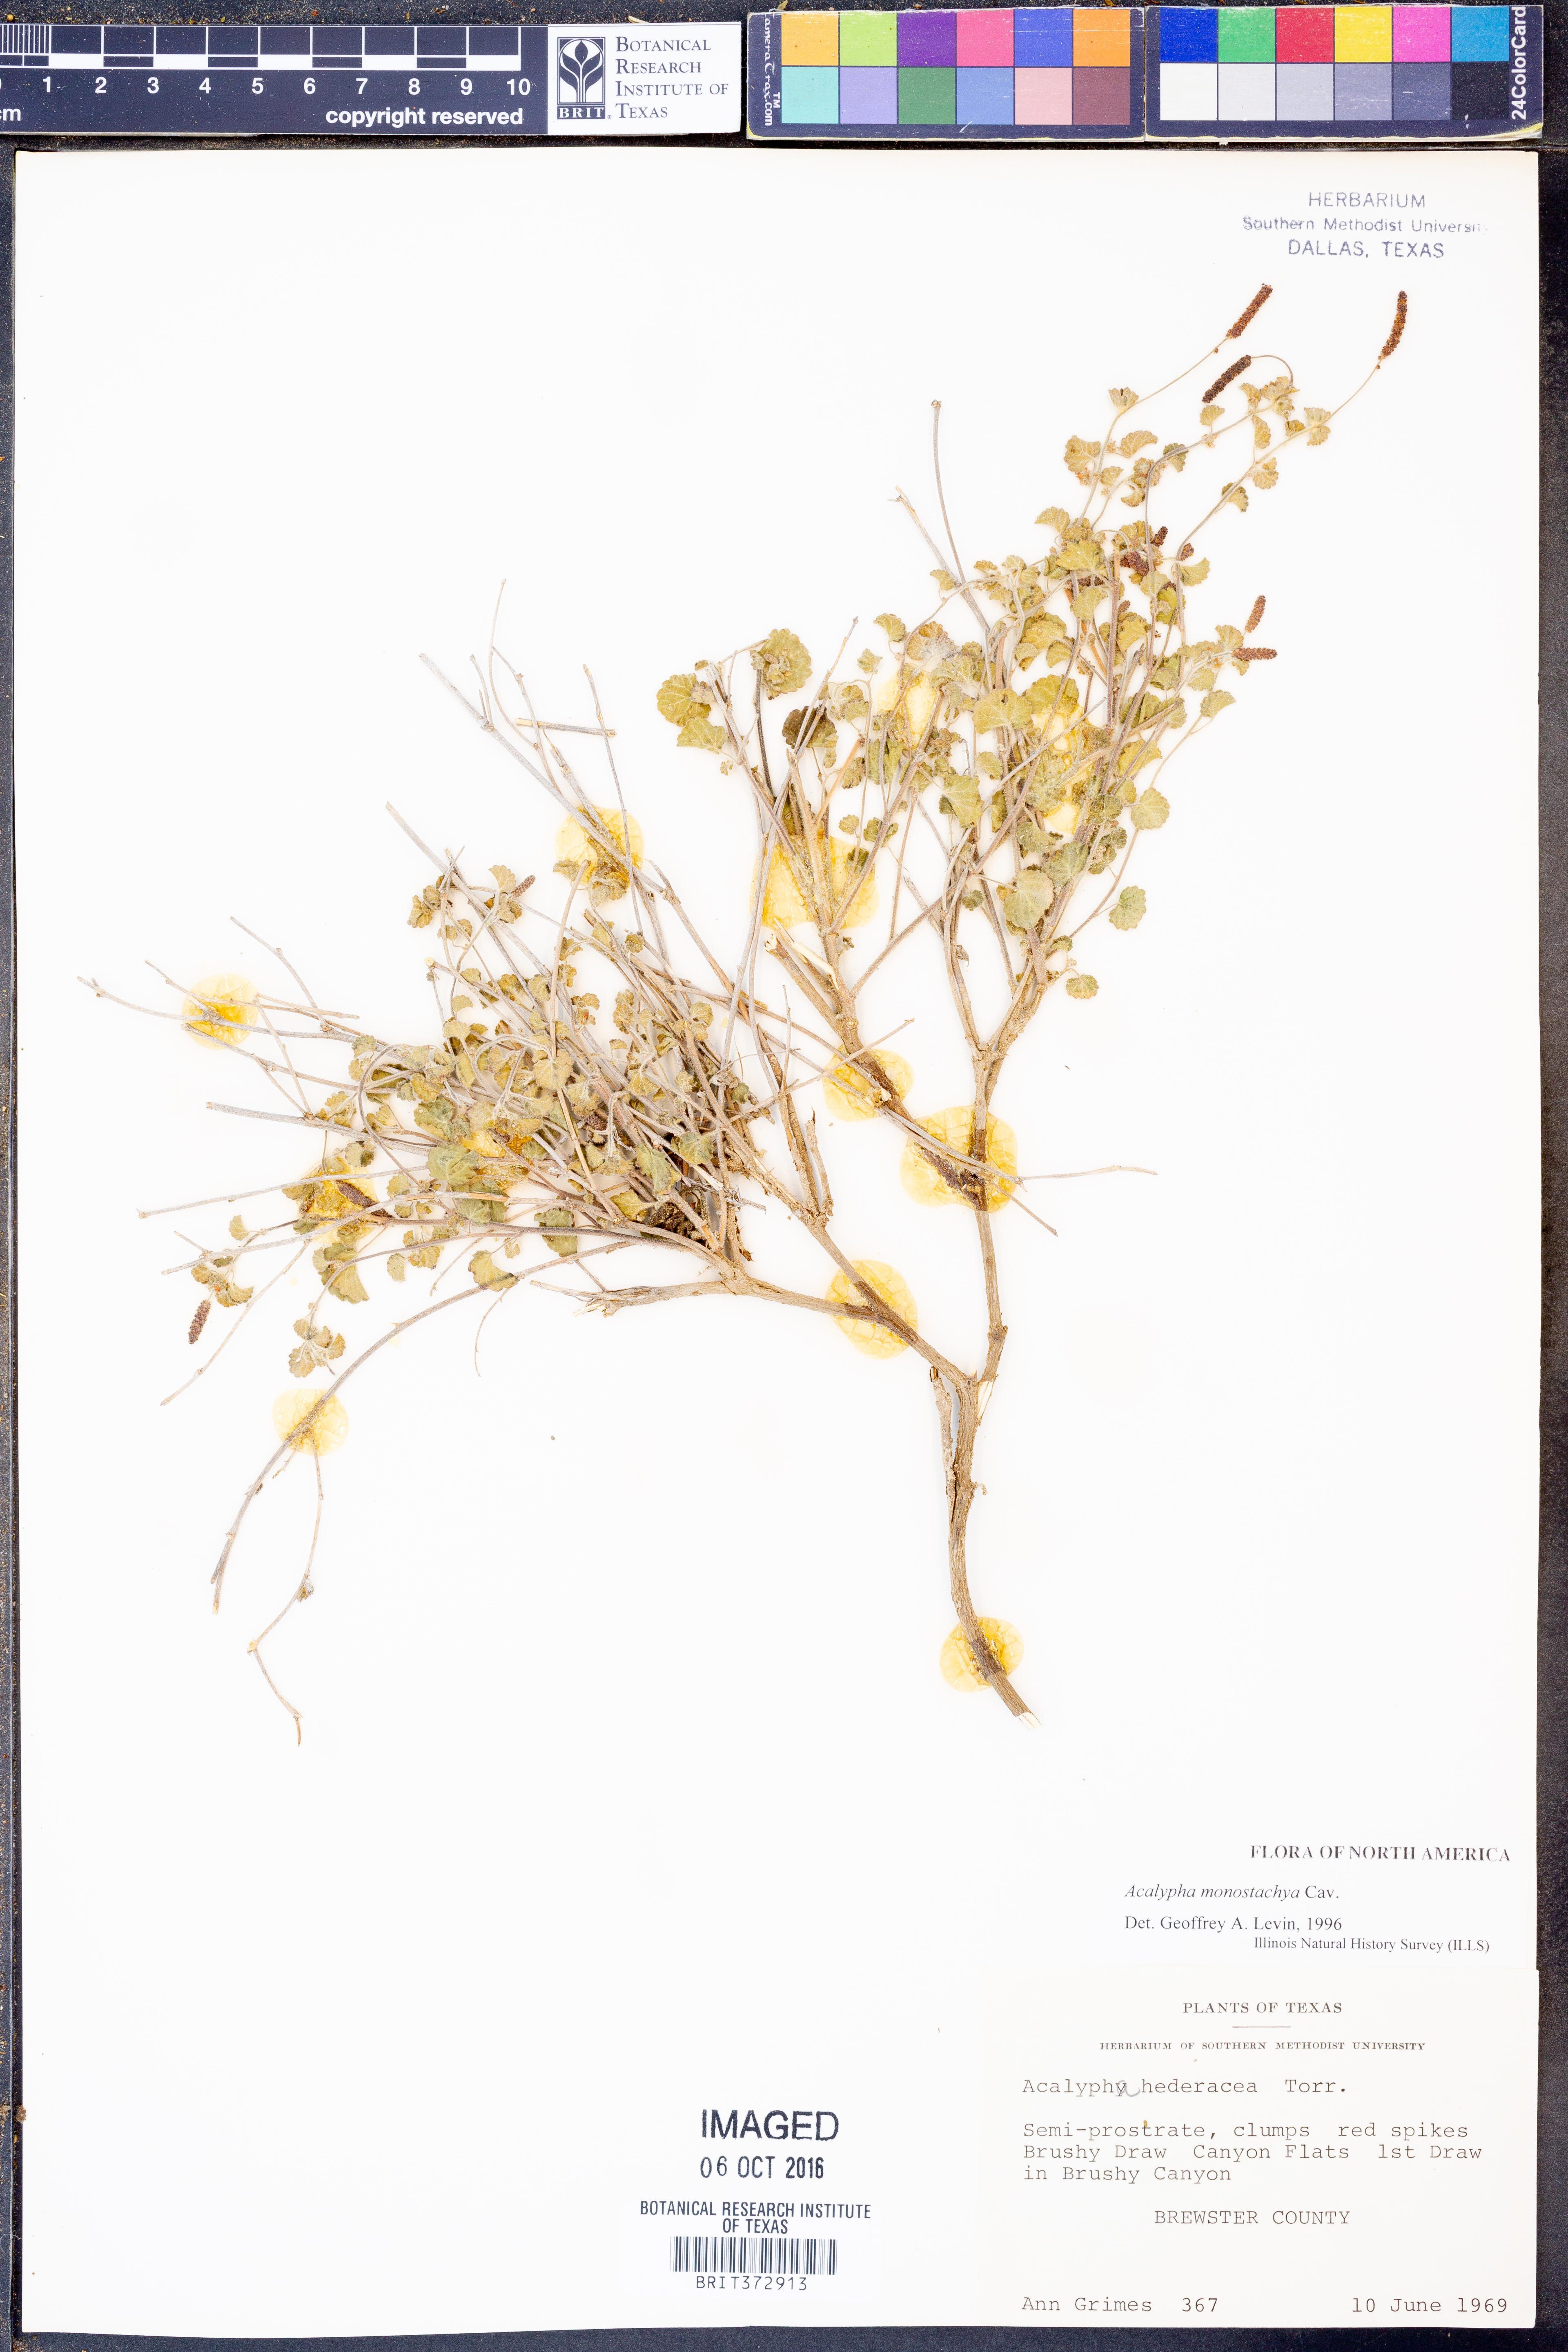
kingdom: Plantae
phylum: Tracheophyta
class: Magnoliopsida
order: Malpighiales
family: Euphorbiaceae
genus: Acalypha
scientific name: Acalypha monostachya
